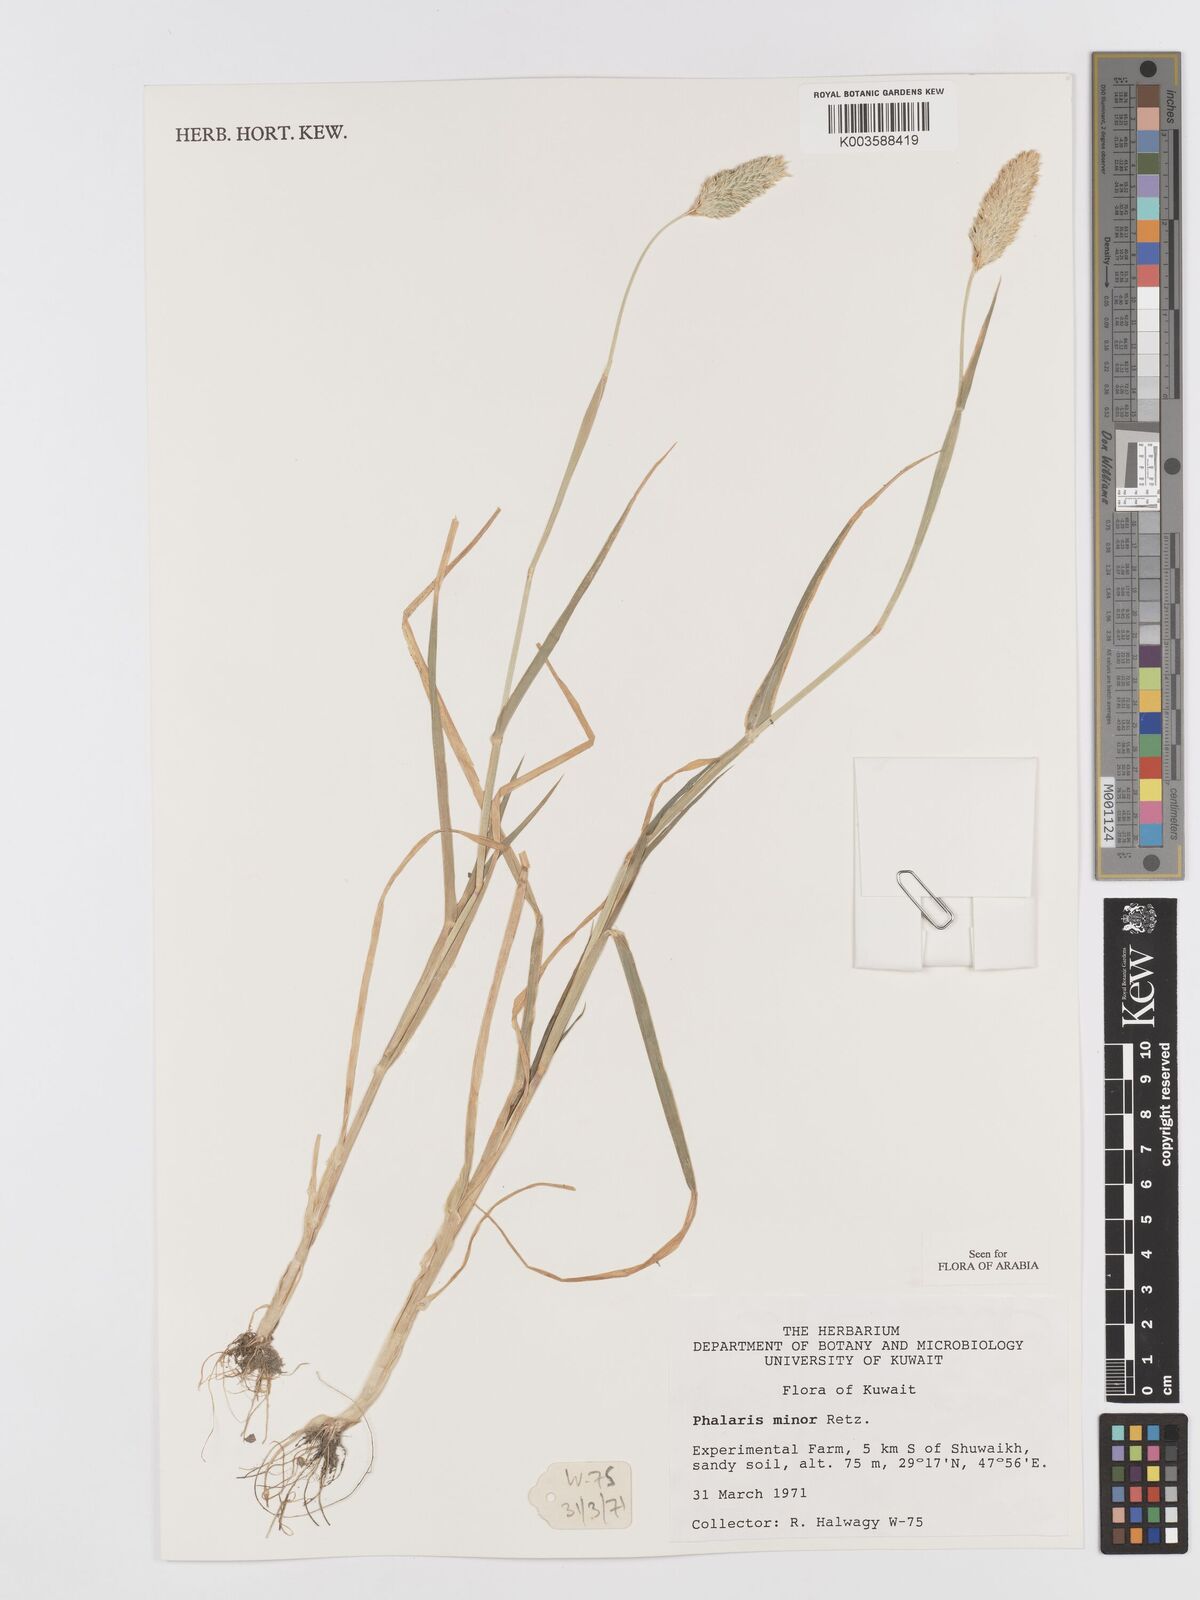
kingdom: Plantae
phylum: Tracheophyta
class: Liliopsida
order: Poales
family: Poaceae
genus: Phalaris
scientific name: Phalaris minor
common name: Littleseed canarygrass
